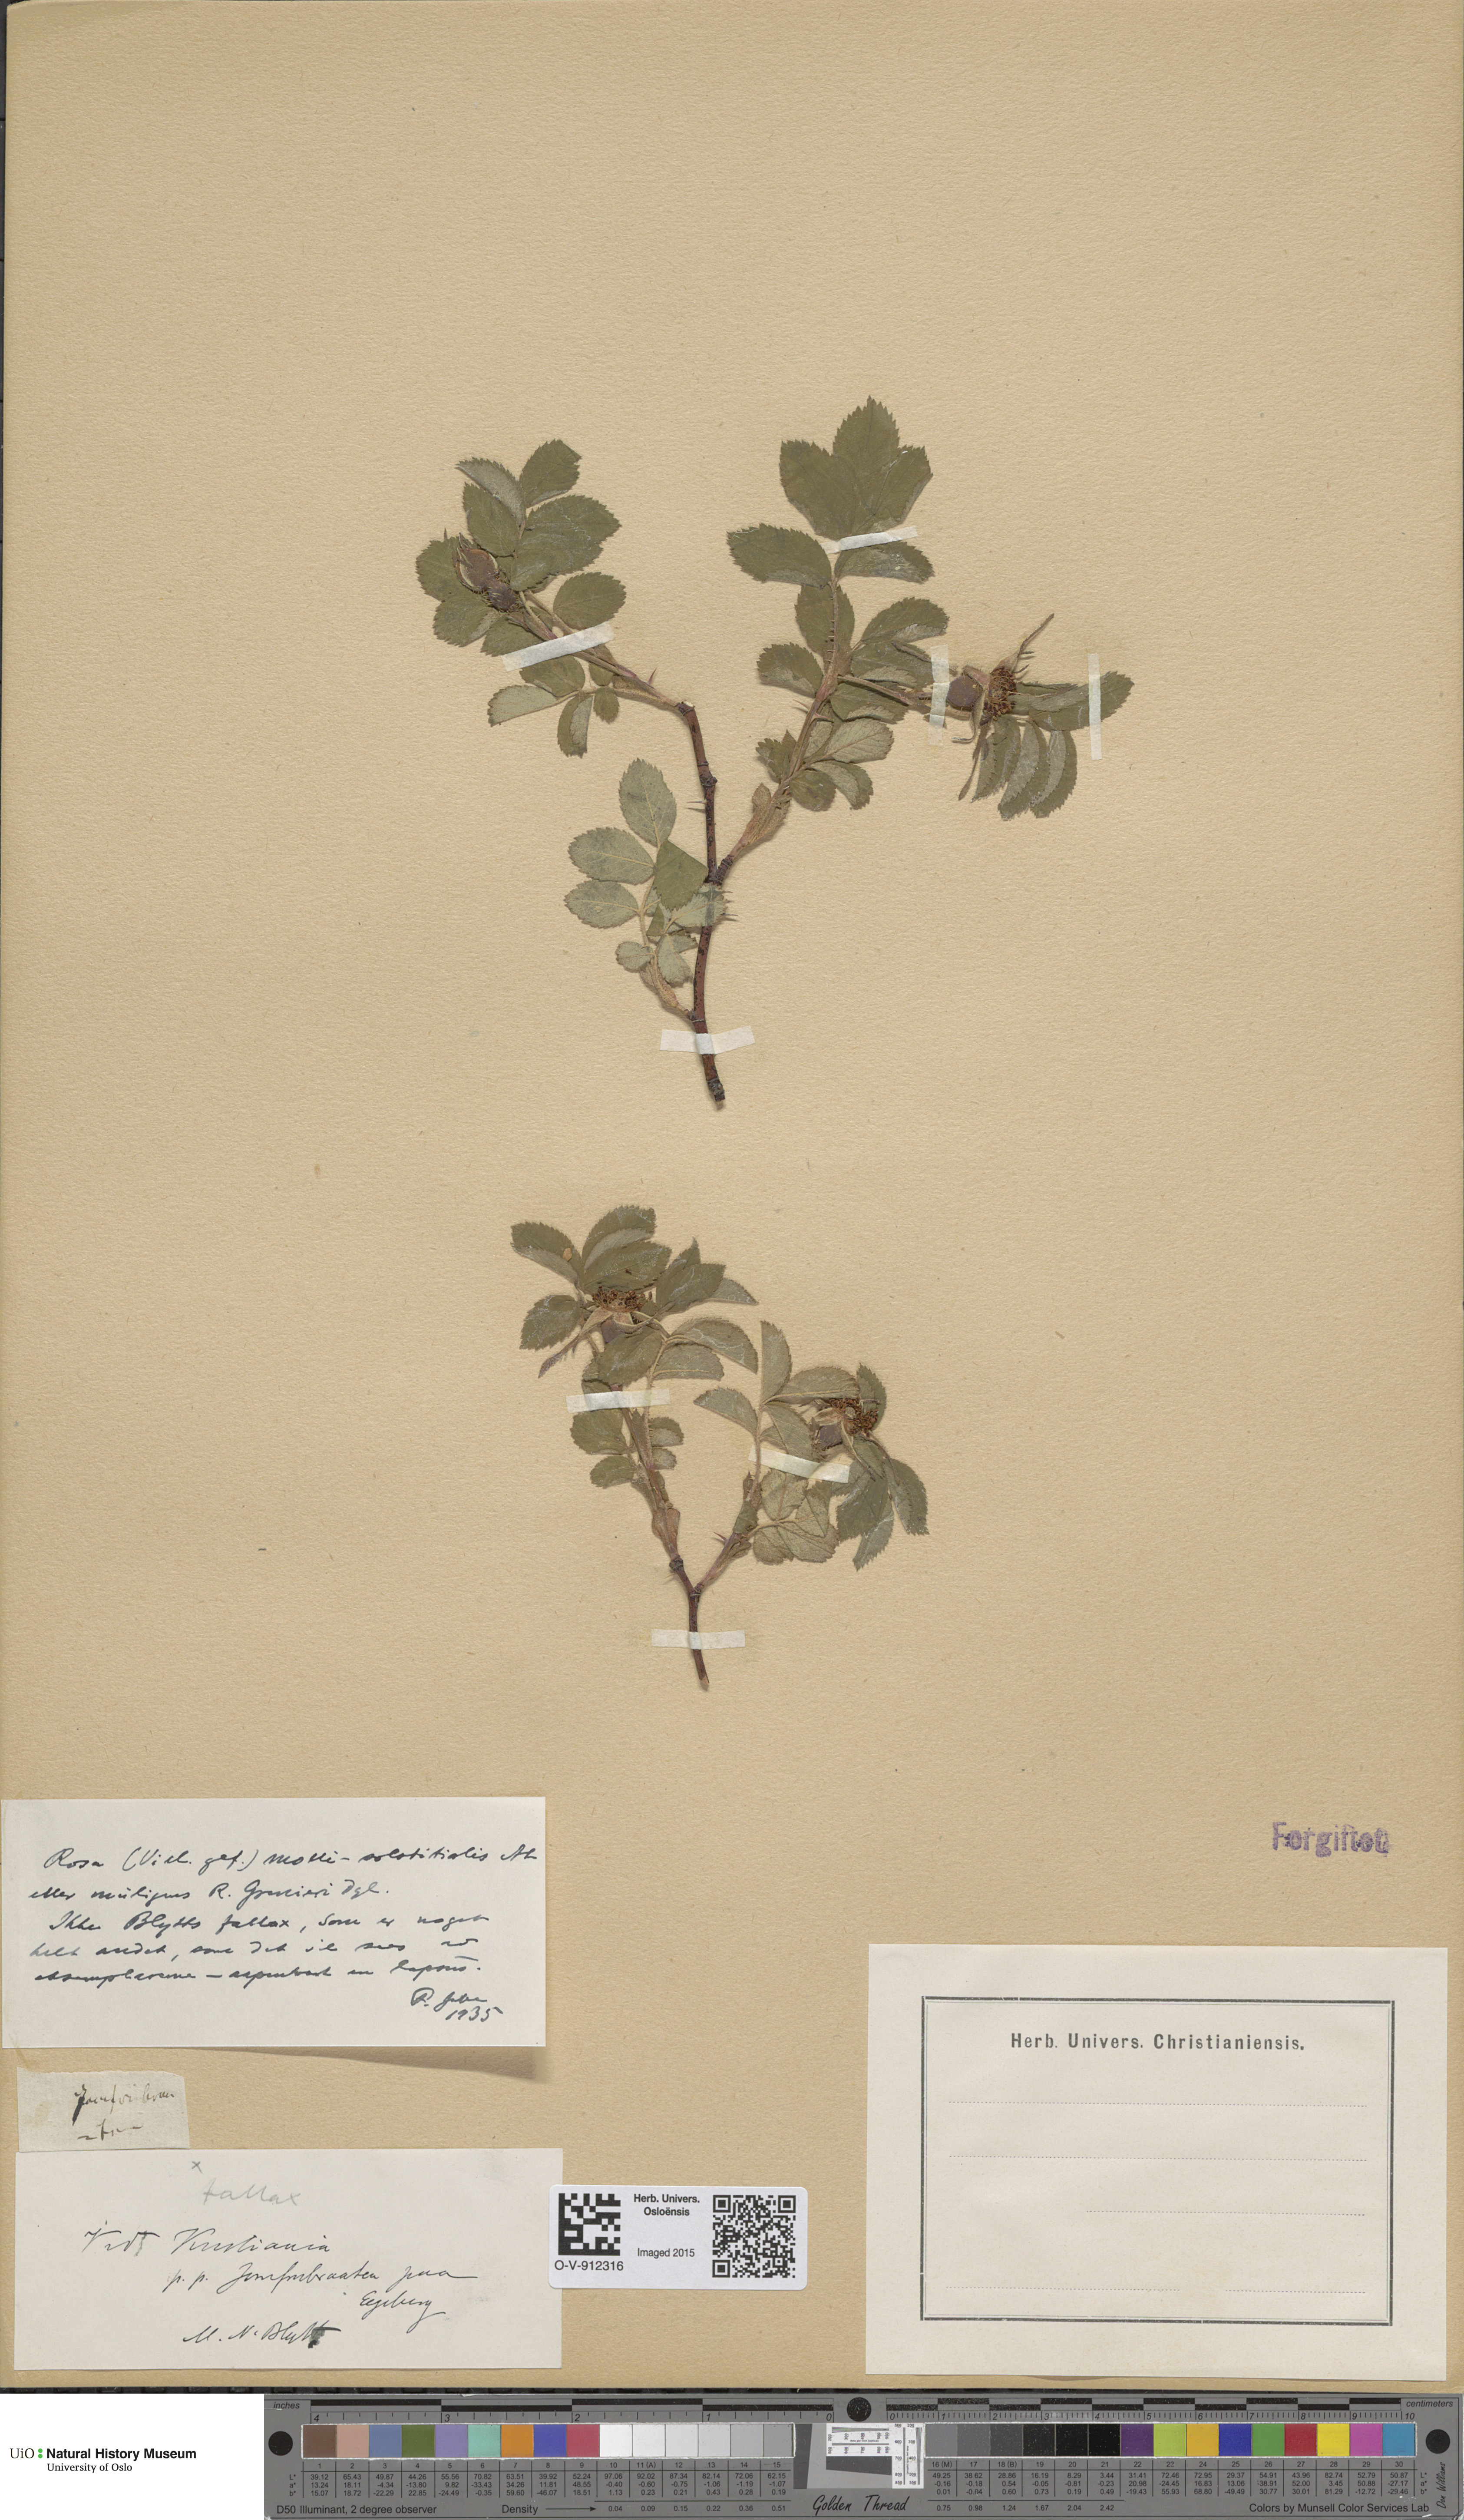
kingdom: Plantae
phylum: Tracheophyta
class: Magnoliopsida
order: Rosales
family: Rosaceae
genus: Rosa
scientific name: Rosa mollis
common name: Rose
